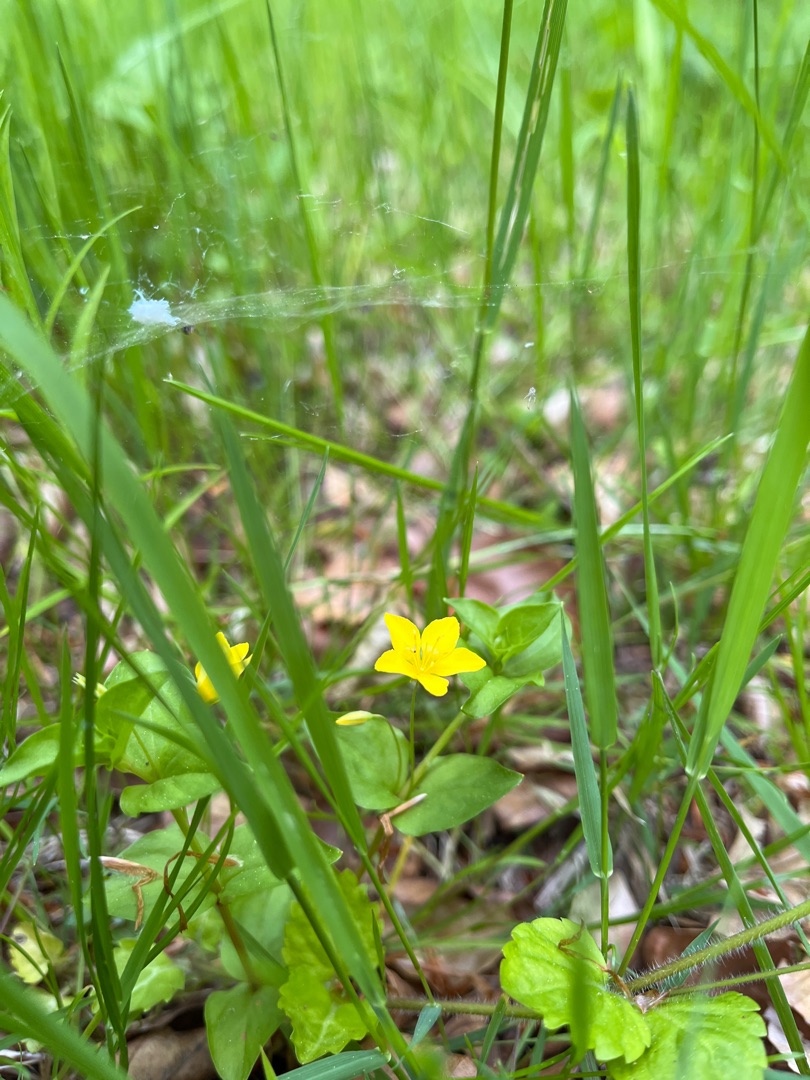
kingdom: Plantae
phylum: Tracheophyta
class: Magnoliopsida
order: Ericales
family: Primulaceae
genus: Lysimachia
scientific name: Lysimachia nemorum
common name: Lund-fredløs
